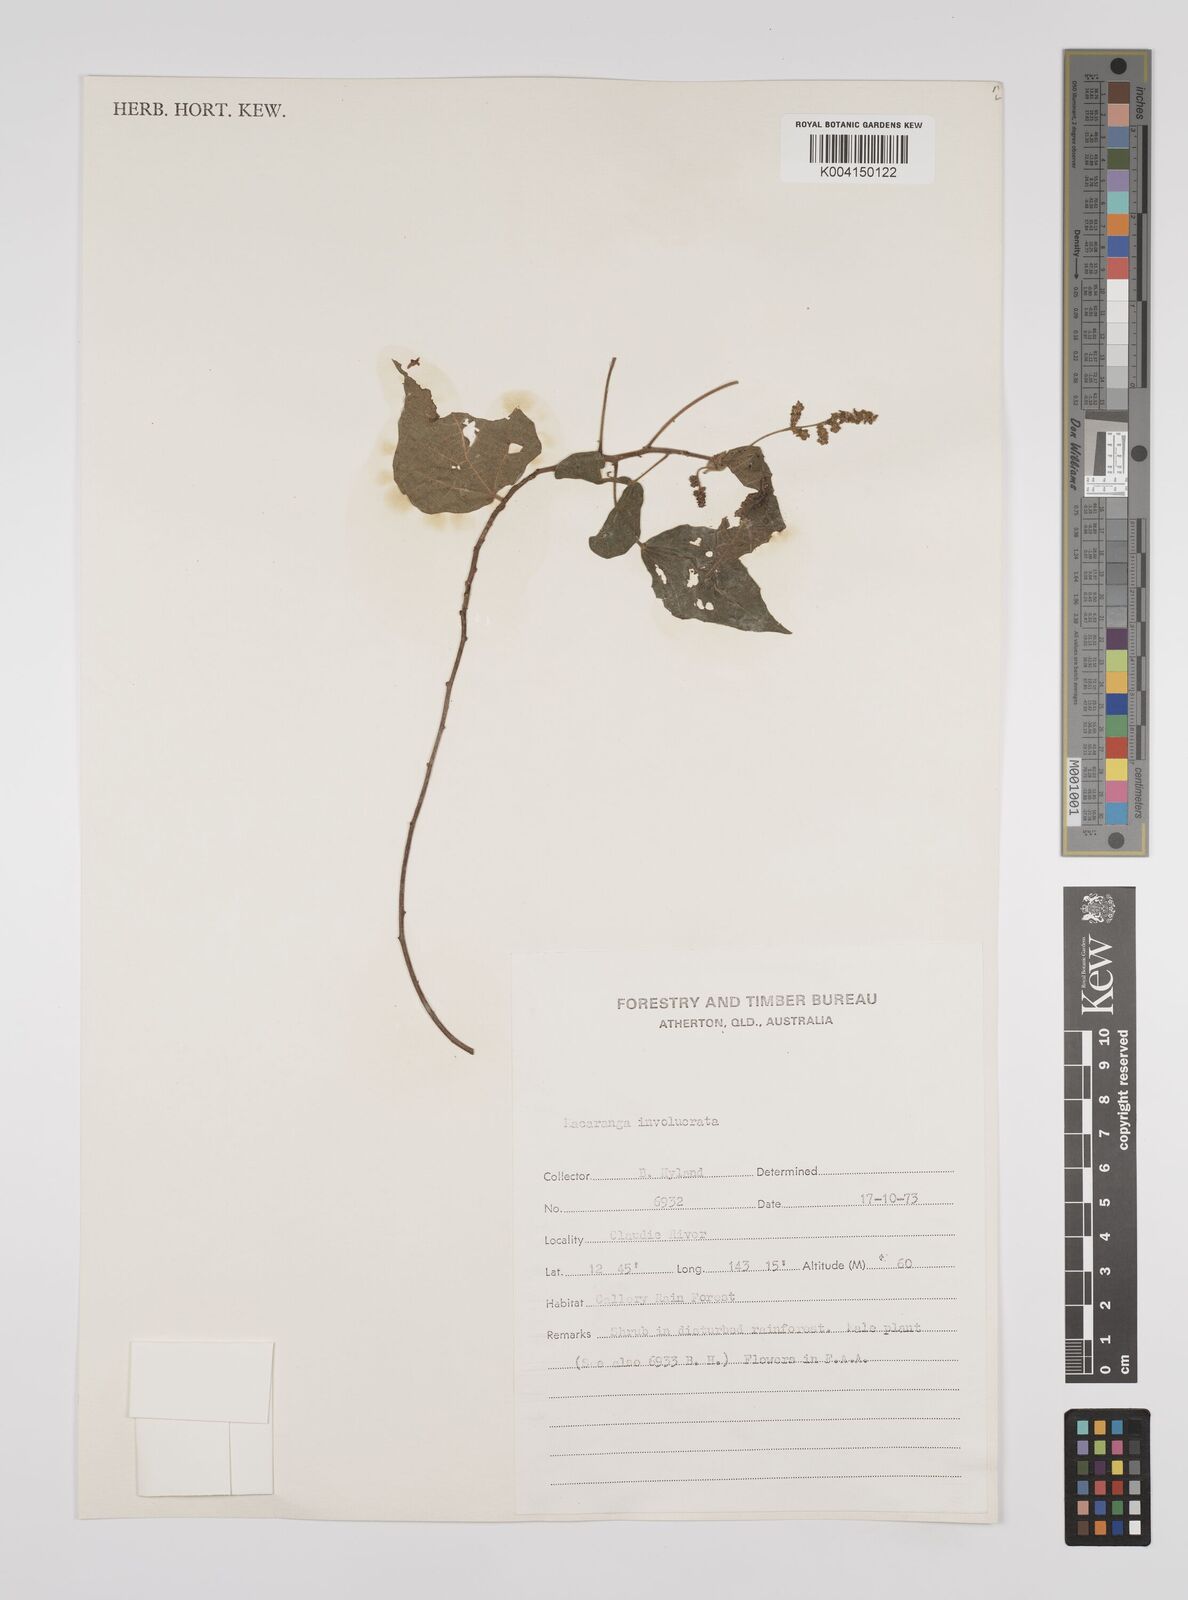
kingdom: Plantae
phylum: Tracheophyta
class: Magnoliopsida
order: Malpighiales
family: Euphorbiaceae
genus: Macaranga
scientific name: Macaranga involucrata
